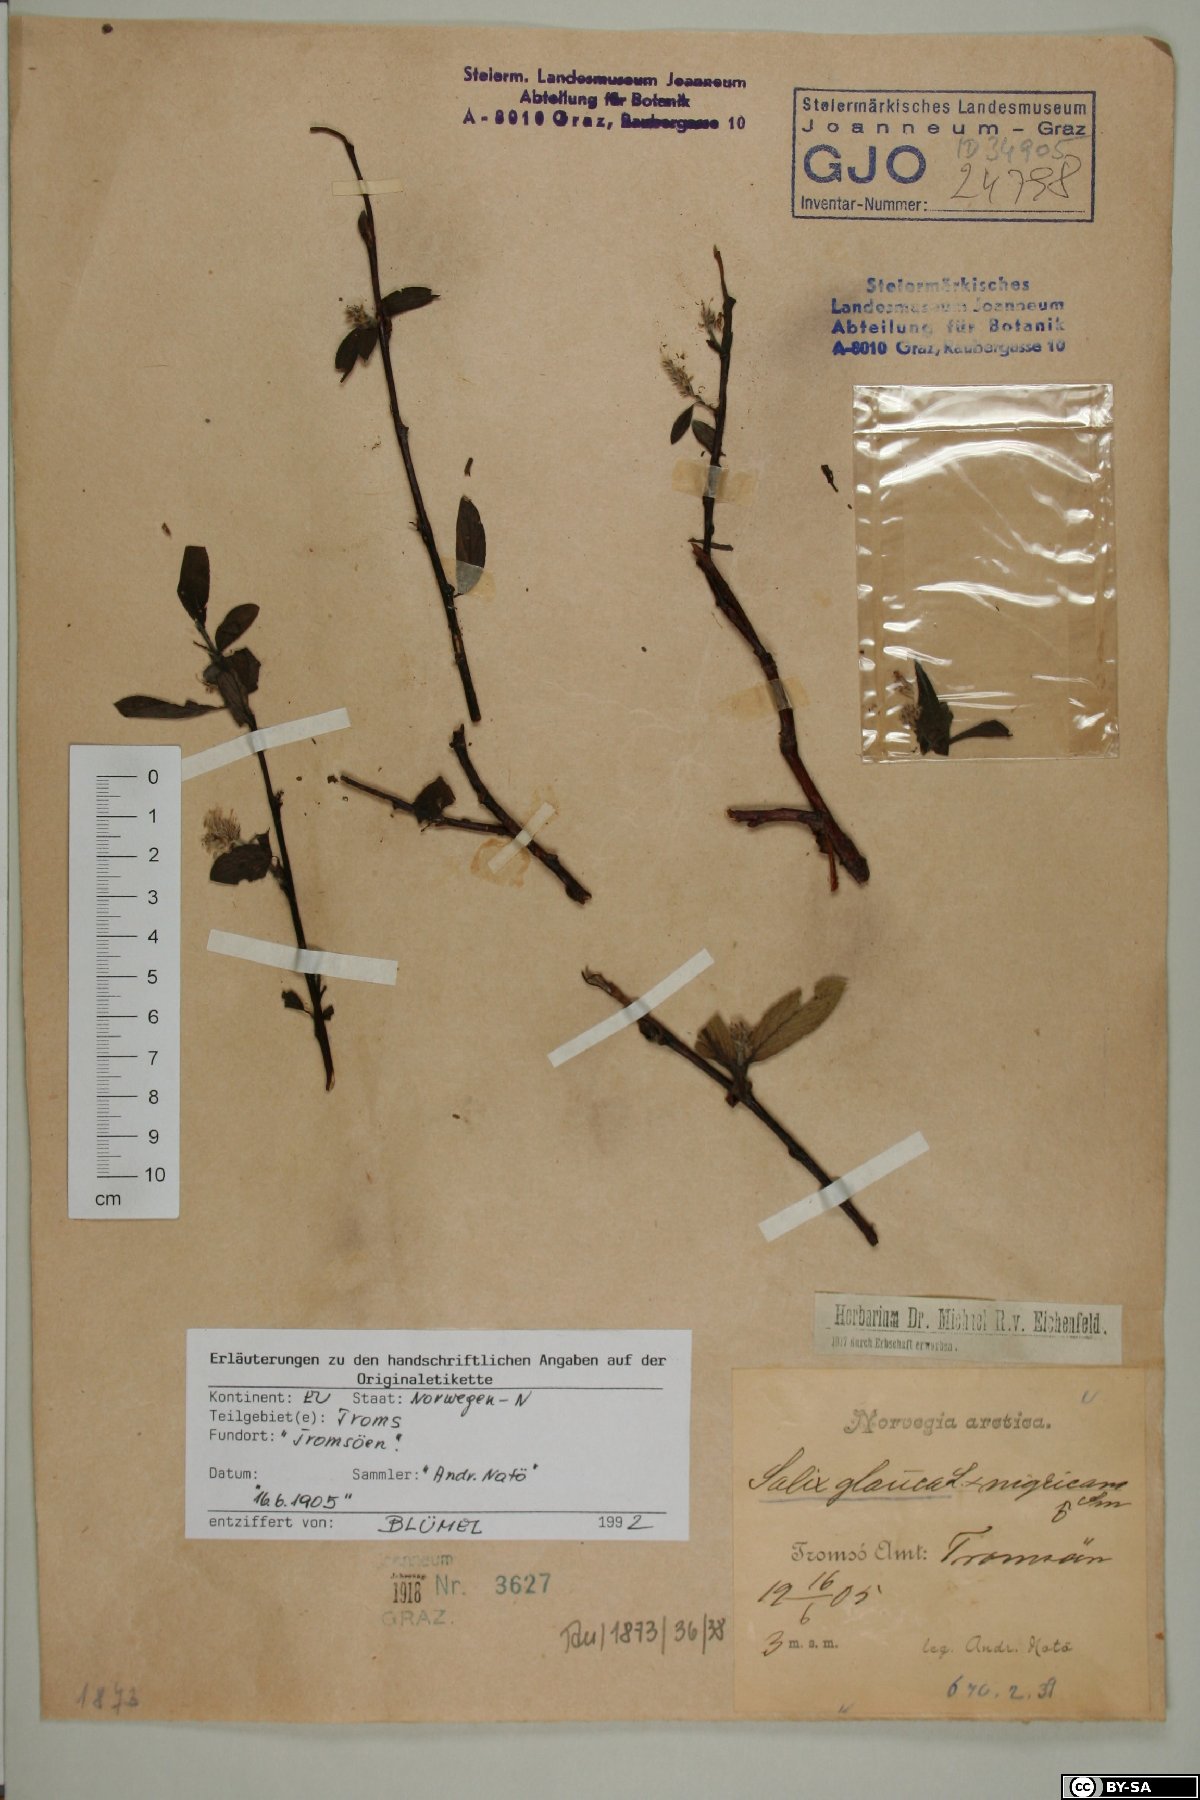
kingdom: Plantae
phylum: Tracheophyta
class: Magnoliopsida
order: Malpighiales
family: Salicaceae
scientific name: Salicaceae
